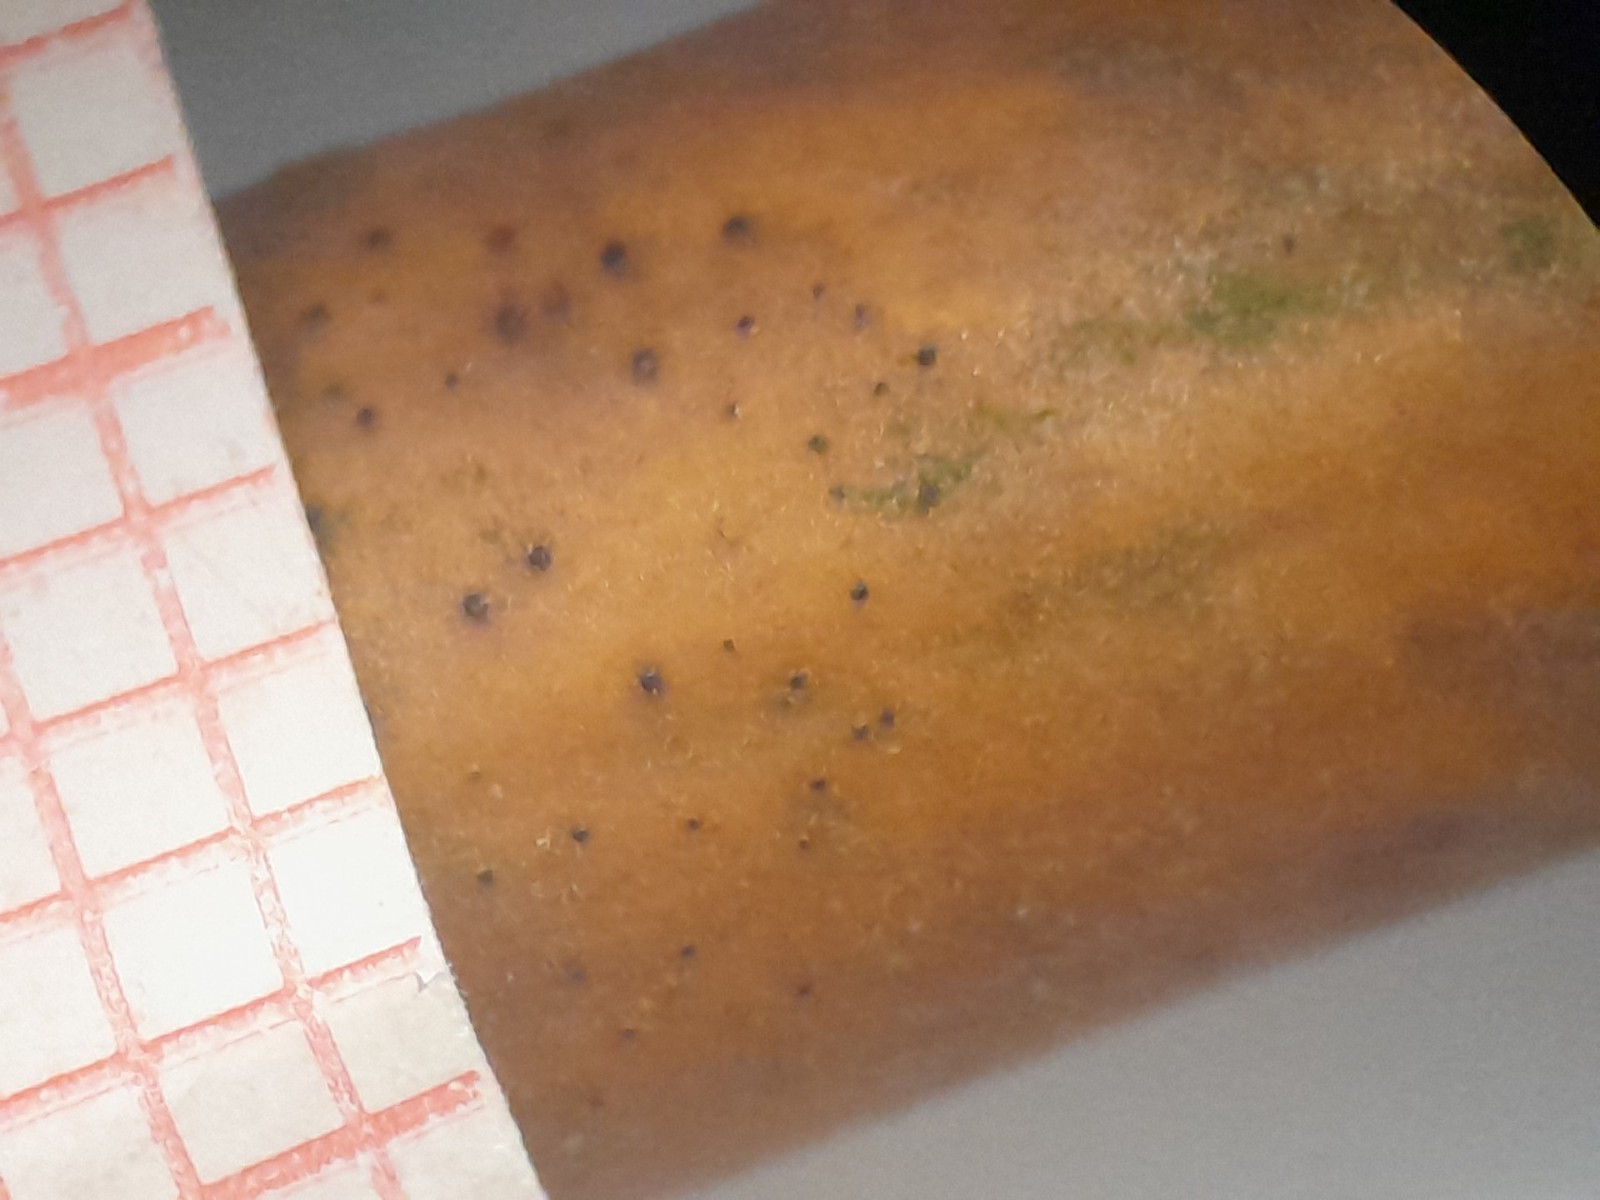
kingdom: Fungi
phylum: Ascomycota
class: Dothideomycetes
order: Pleosporales
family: Naetrocymbaceae
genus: Naetrocymbe
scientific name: Naetrocymbe punctiformis
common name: punkt-arthopyrenia
